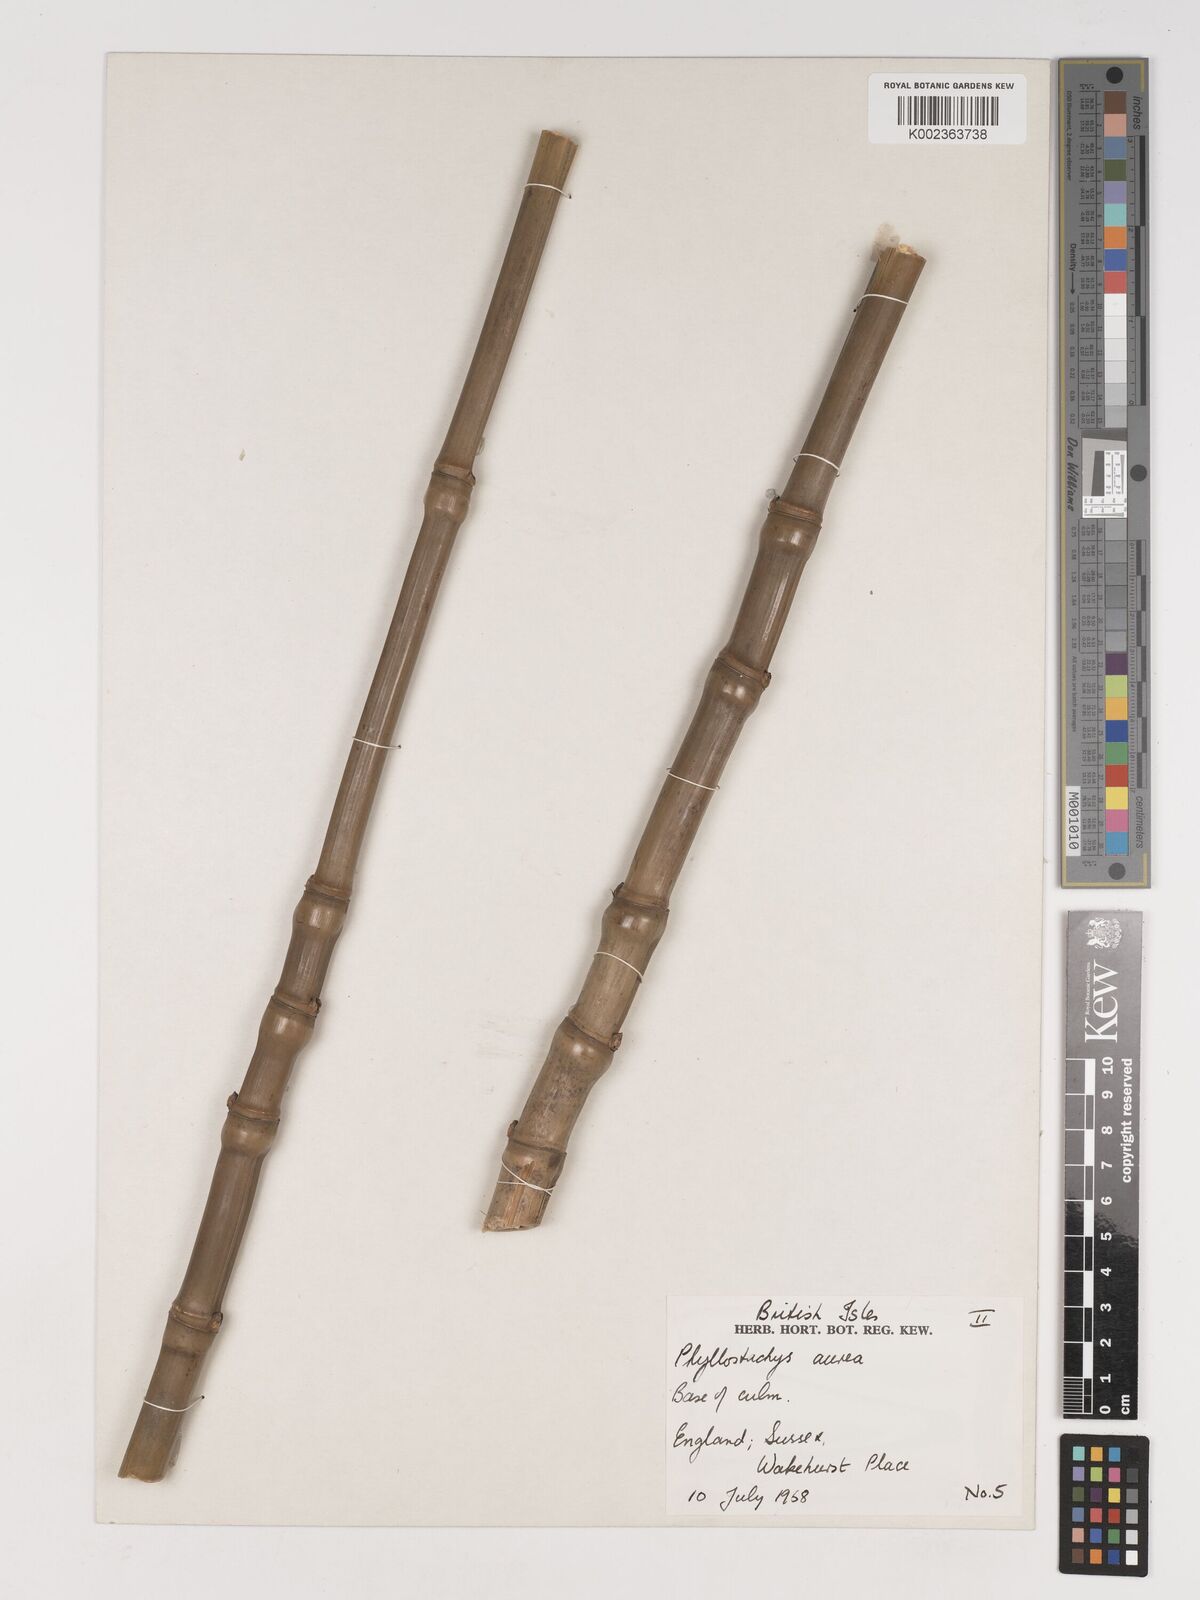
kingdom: Plantae
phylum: Tracheophyta
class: Liliopsida
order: Poales
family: Poaceae
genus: Phyllostachys
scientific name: Phyllostachys aurea
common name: Golden bamboo
